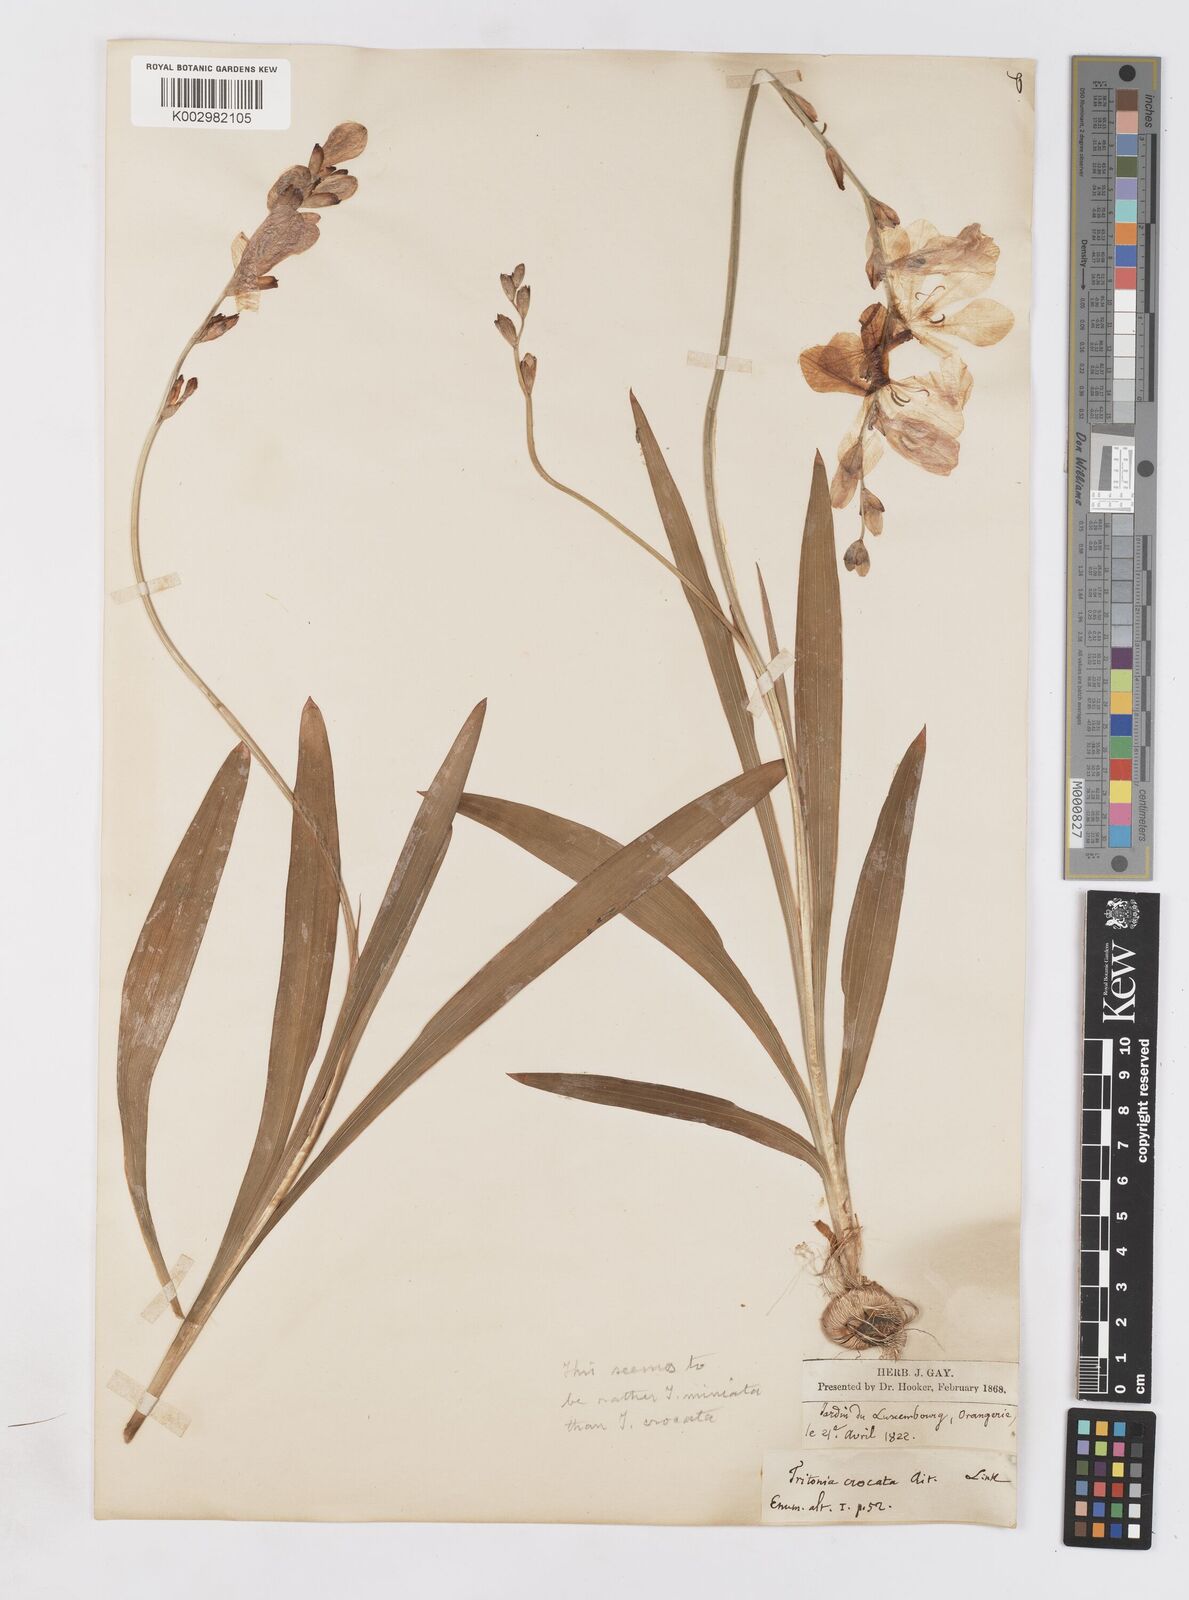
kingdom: Plantae
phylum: Tracheophyta
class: Liliopsida
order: Asparagales
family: Iridaceae
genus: Tritonia
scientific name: Tritonia deusta
